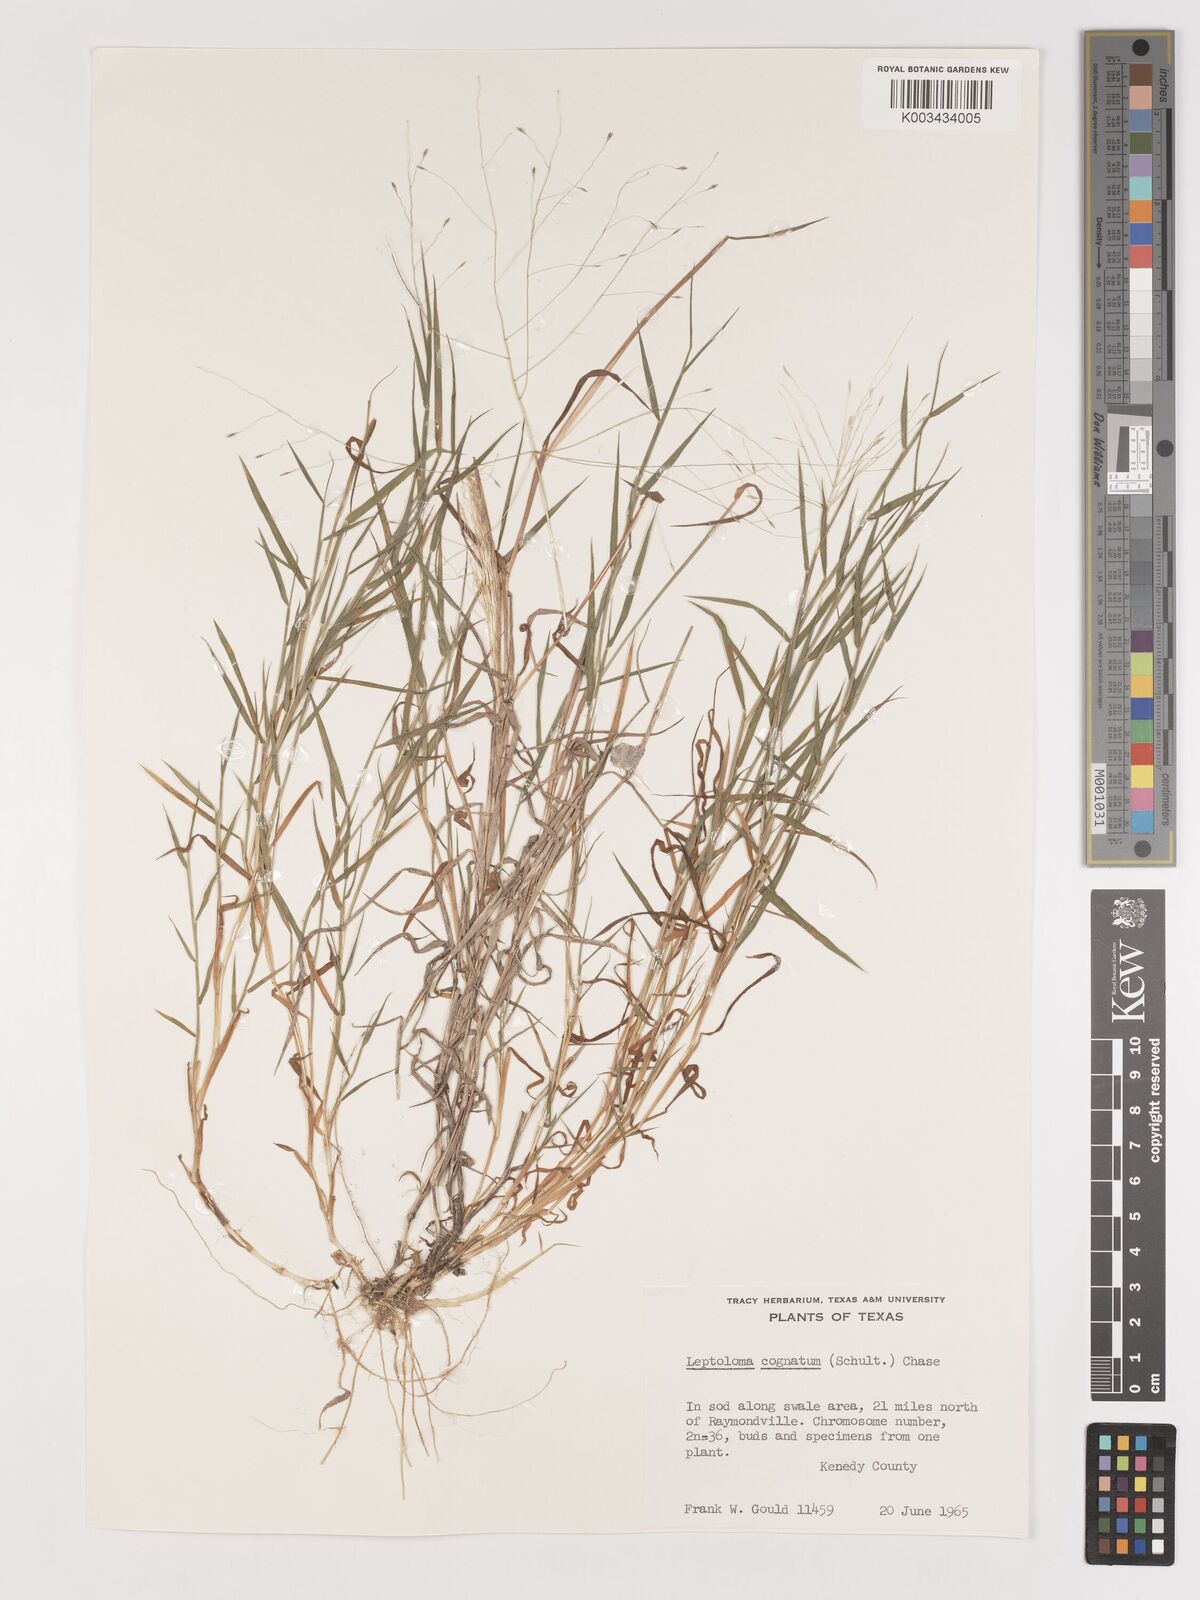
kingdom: Plantae
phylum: Tracheophyta
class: Liliopsida
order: Poales
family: Poaceae
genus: Digitaria
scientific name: Digitaria cognata
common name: Fall witchgrass
